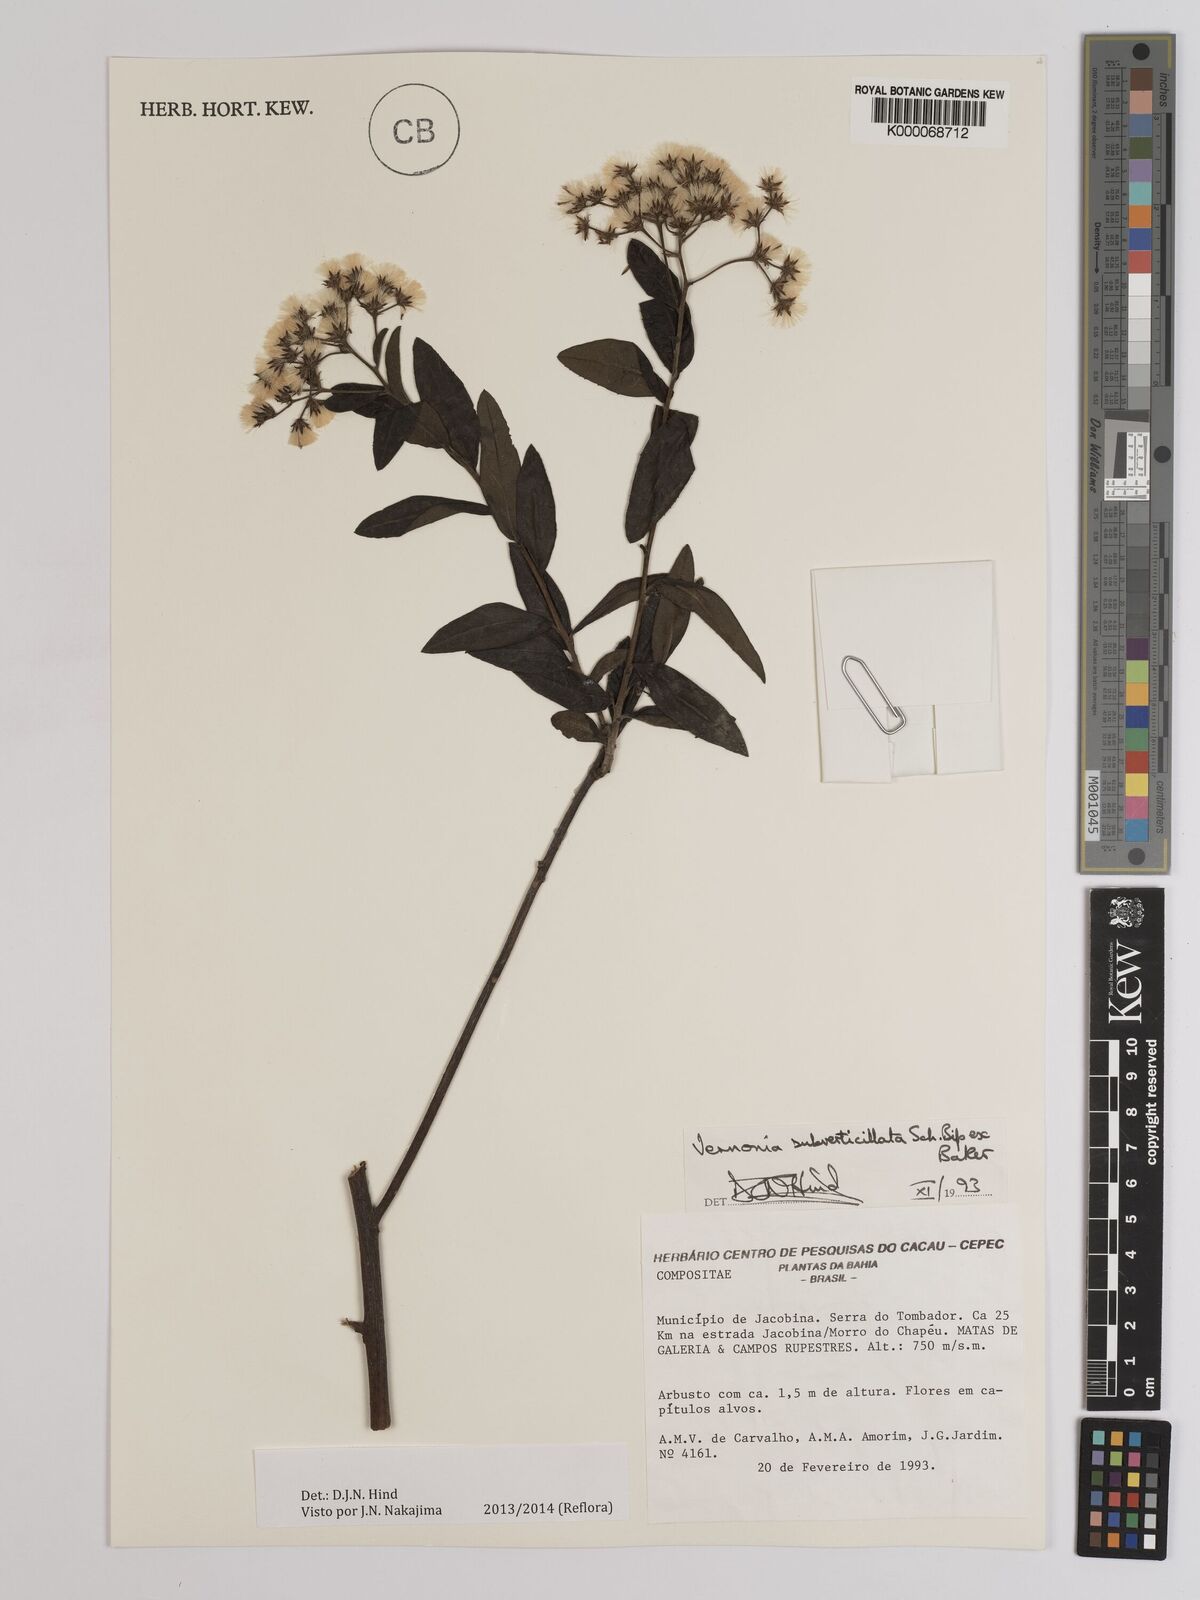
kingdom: Plantae
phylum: Tracheophyta
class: Magnoliopsida
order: Asterales
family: Asteraceae
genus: Vernonia
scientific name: Vernonia
